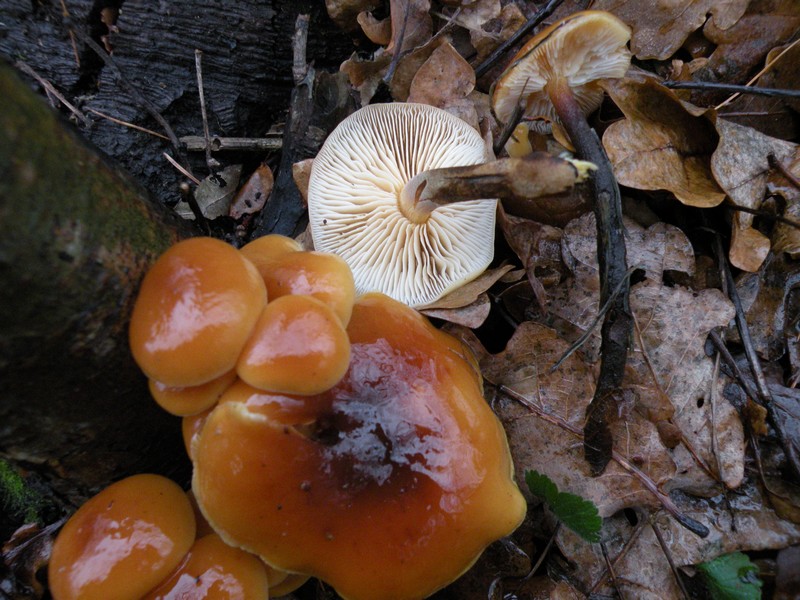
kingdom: Fungi
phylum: Basidiomycota
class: Agaricomycetes
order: Agaricales
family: Physalacriaceae
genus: Flammulina
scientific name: Flammulina velutipes
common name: gul fløjlsfod
